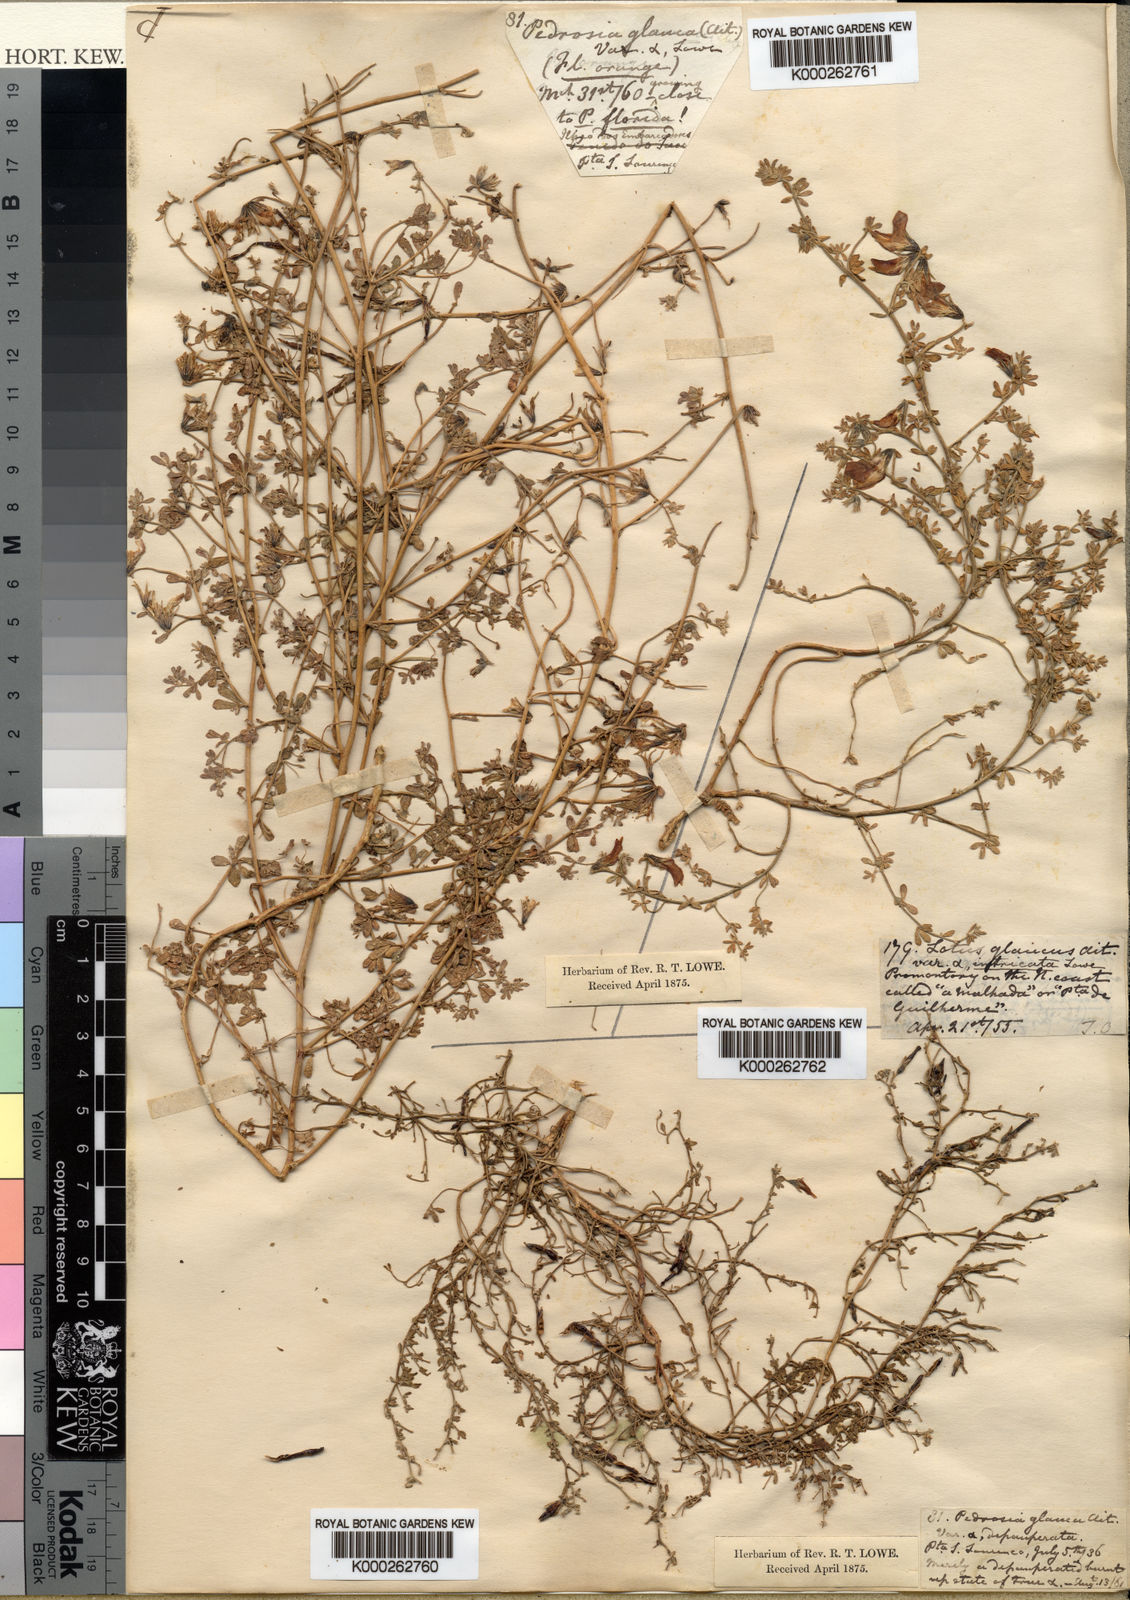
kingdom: Plantae
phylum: Tracheophyta
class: Magnoliopsida
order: Fabales
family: Fabaceae
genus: Lotus
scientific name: Lotus glaucus
